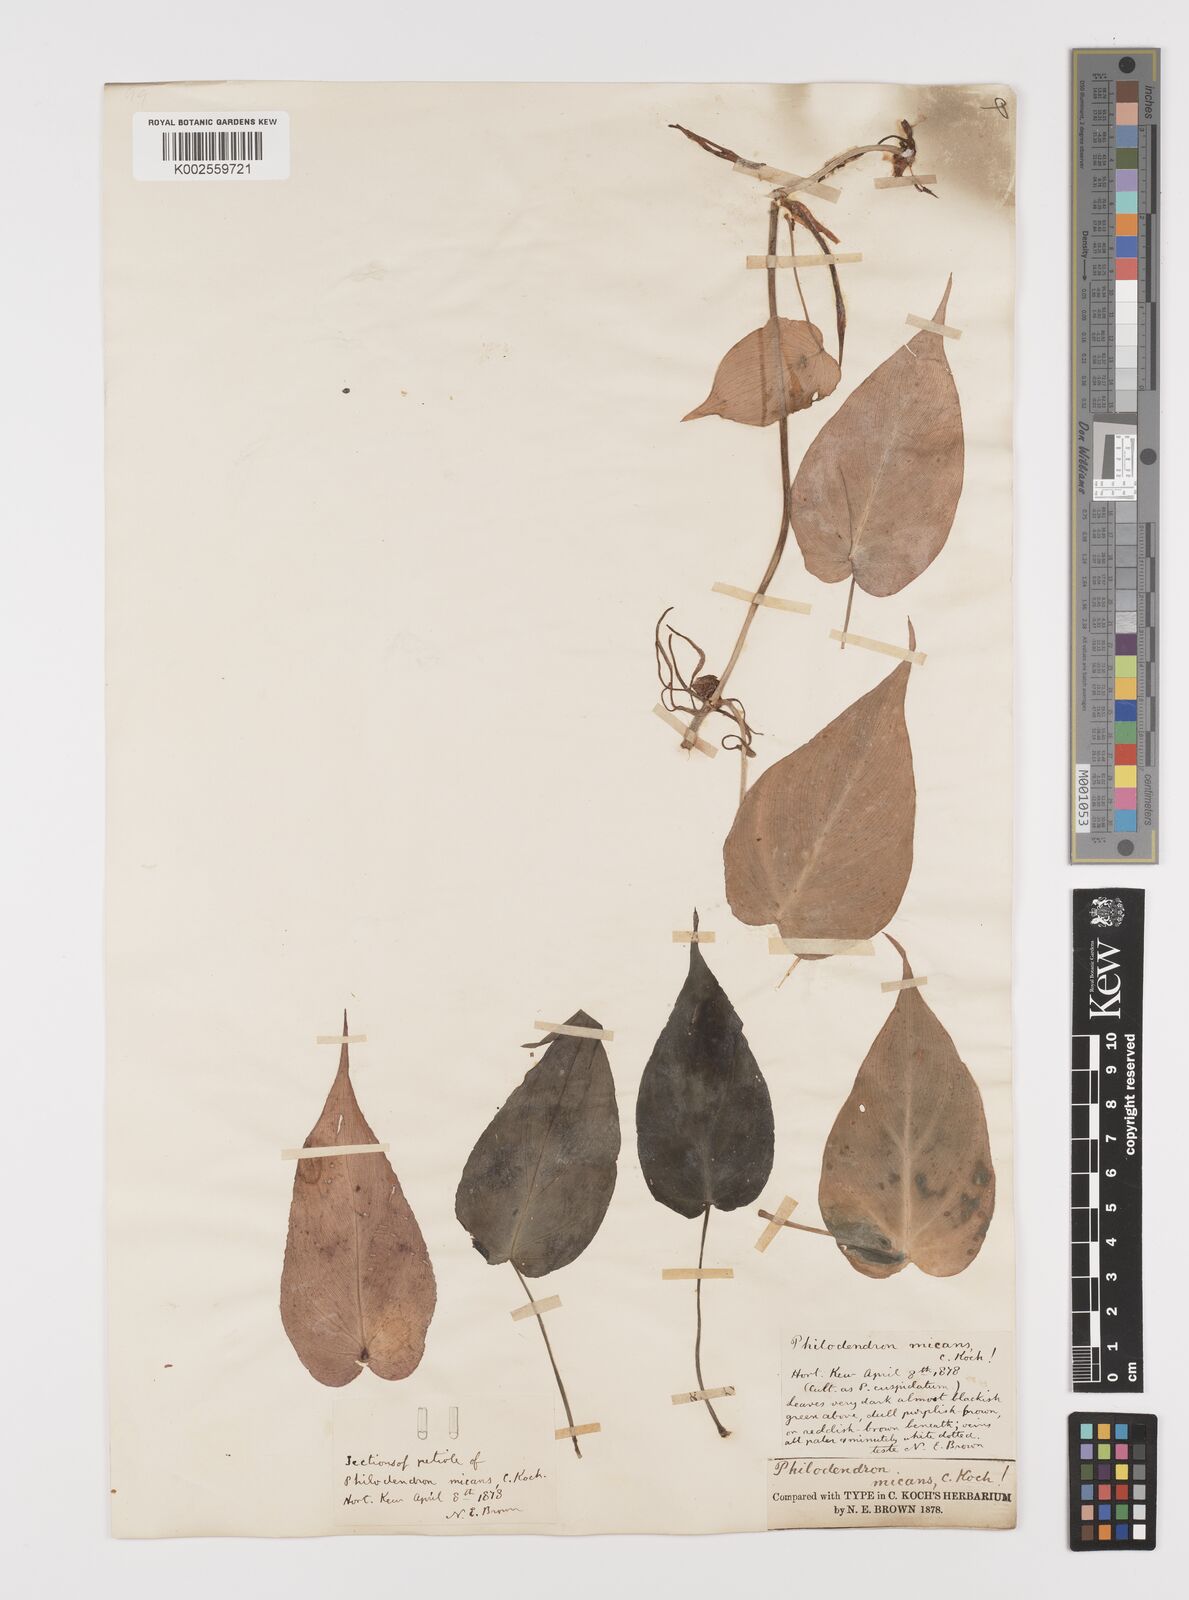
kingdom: Plantae
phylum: Tracheophyta
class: Liliopsida
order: Alismatales
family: Araceae
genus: Philodendron
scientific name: Philodendron hederaceum
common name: Vilevine
